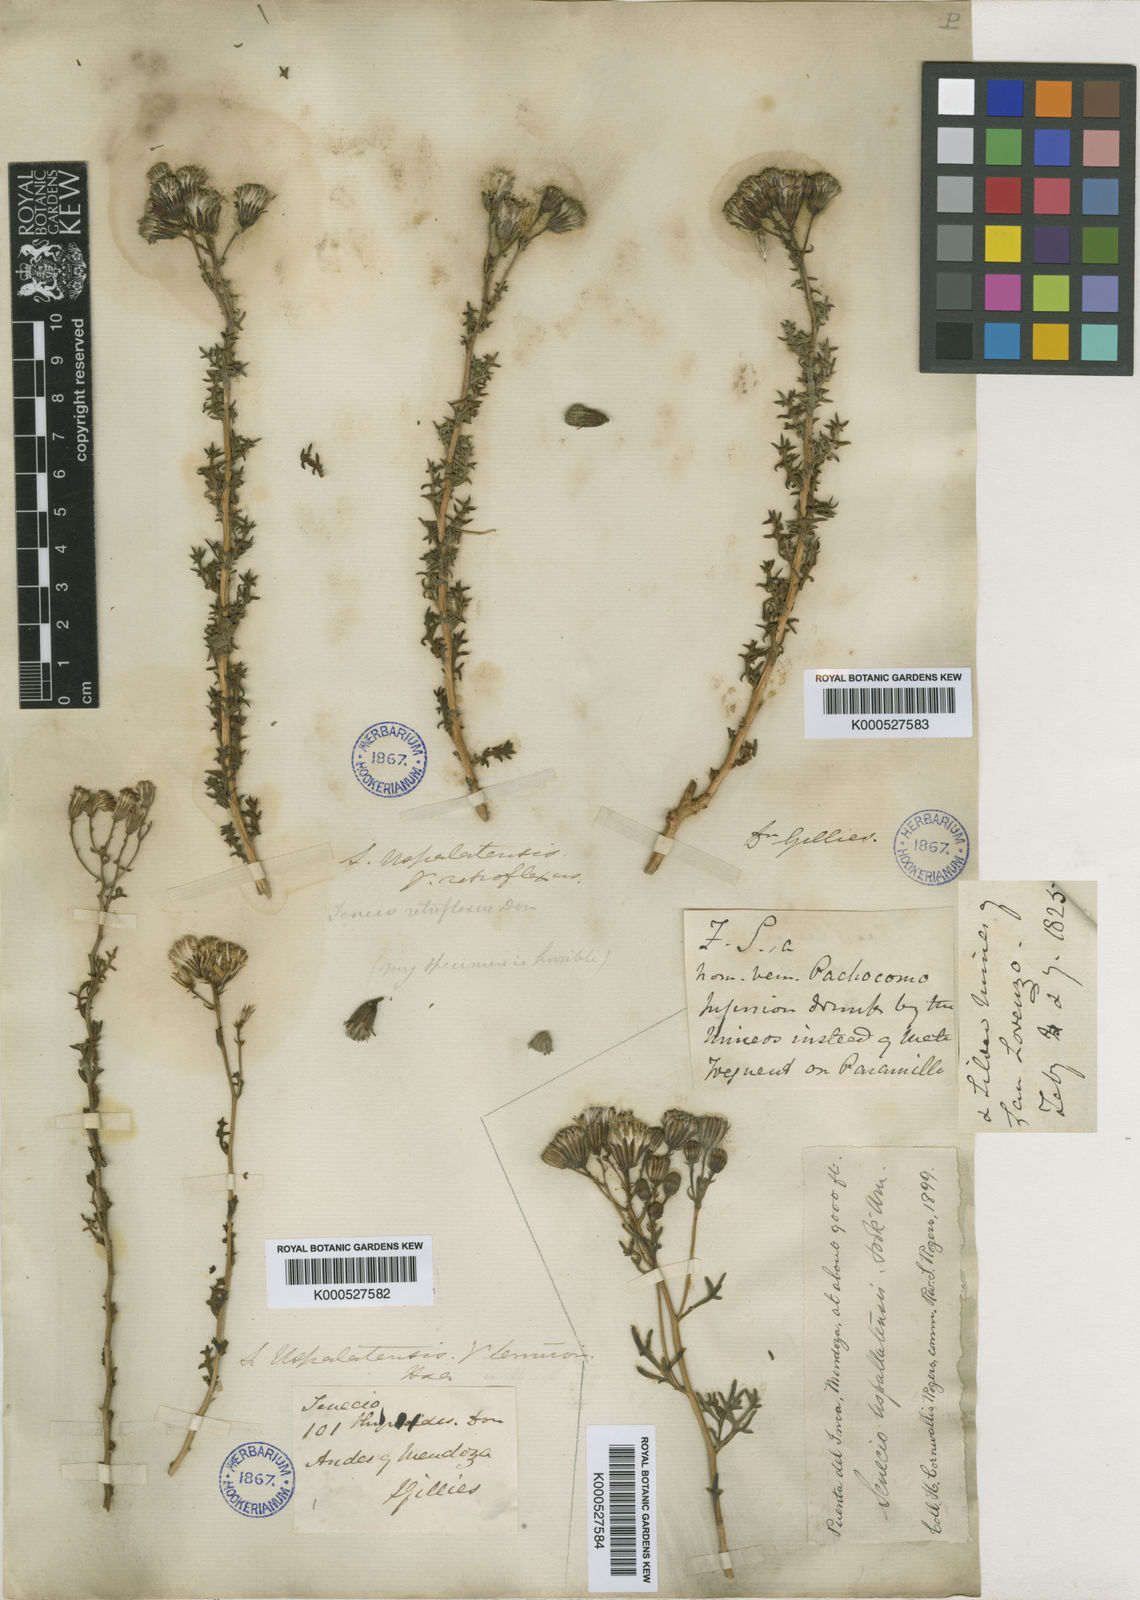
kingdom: Plantae
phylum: Tracheophyta
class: Magnoliopsida
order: Asterales
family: Asteraceae
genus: Senecio
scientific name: Senecio uspallatensis
